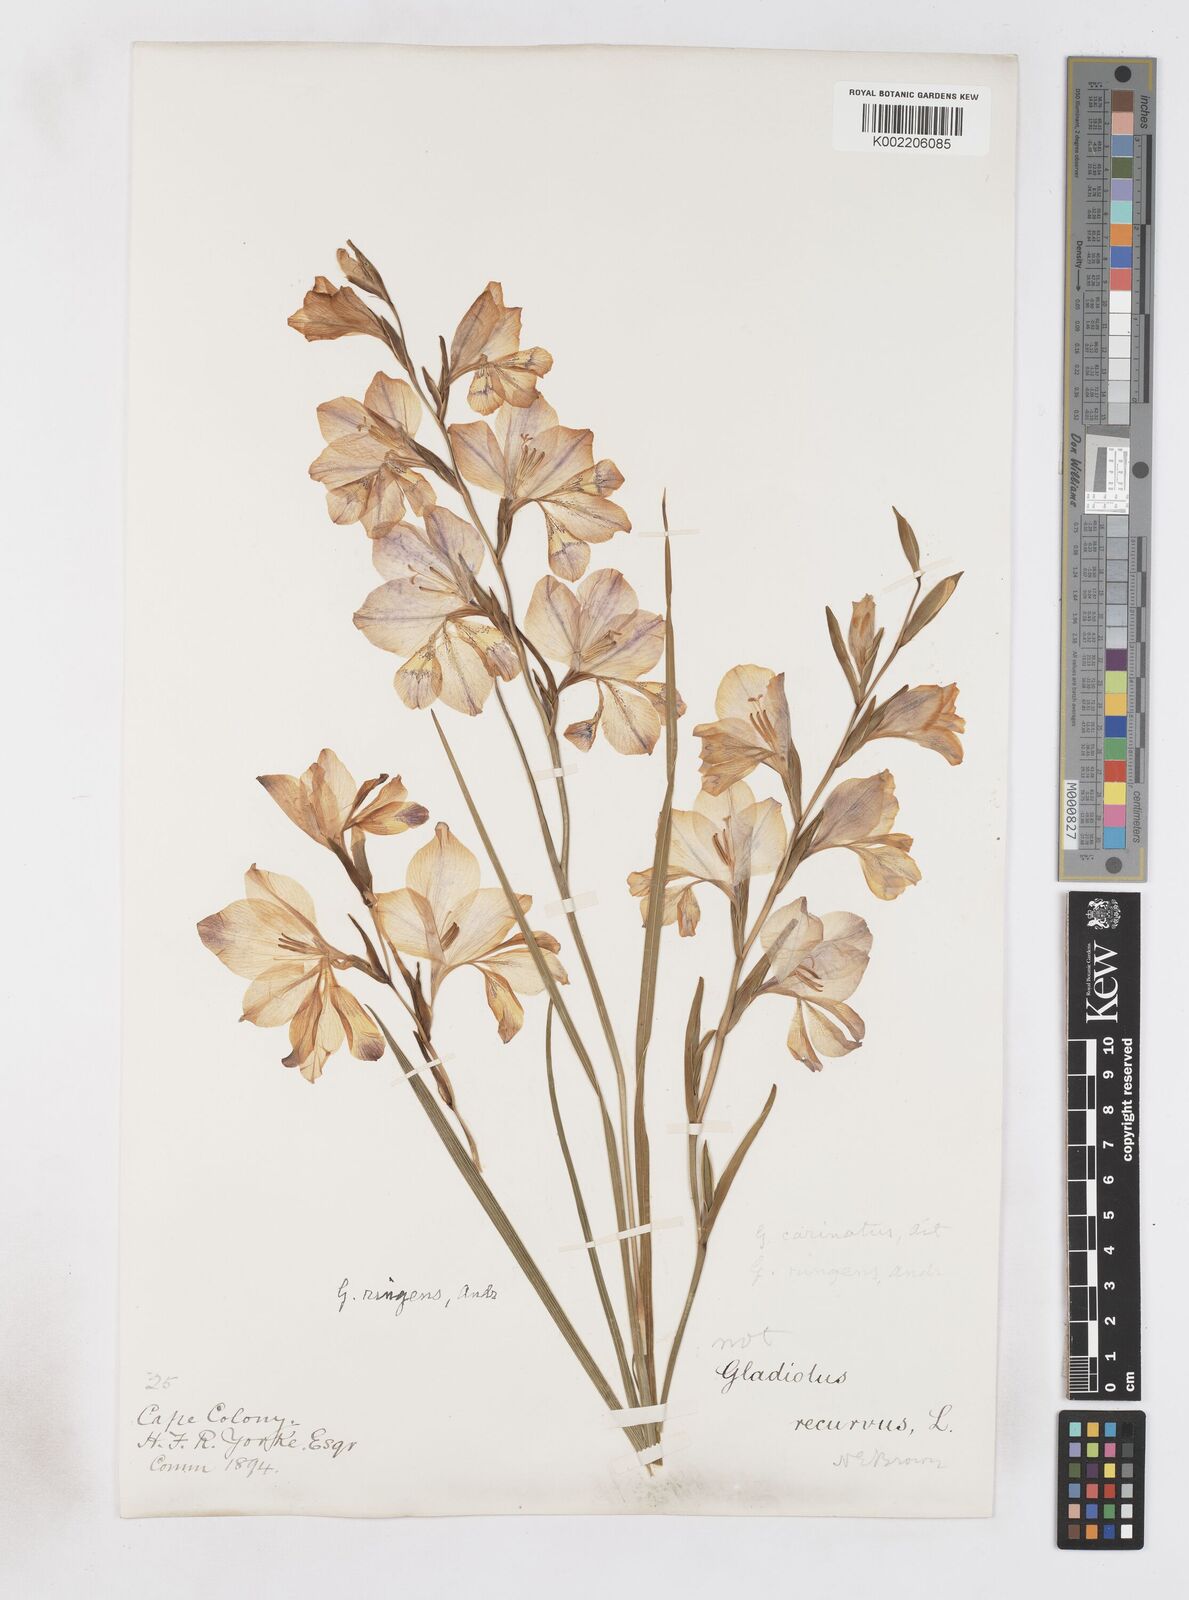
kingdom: Plantae
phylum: Tracheophyta
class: Liliopsida
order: Asparagales
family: Iridaceae
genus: Gladiolus
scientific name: Gladiolus carinatus
